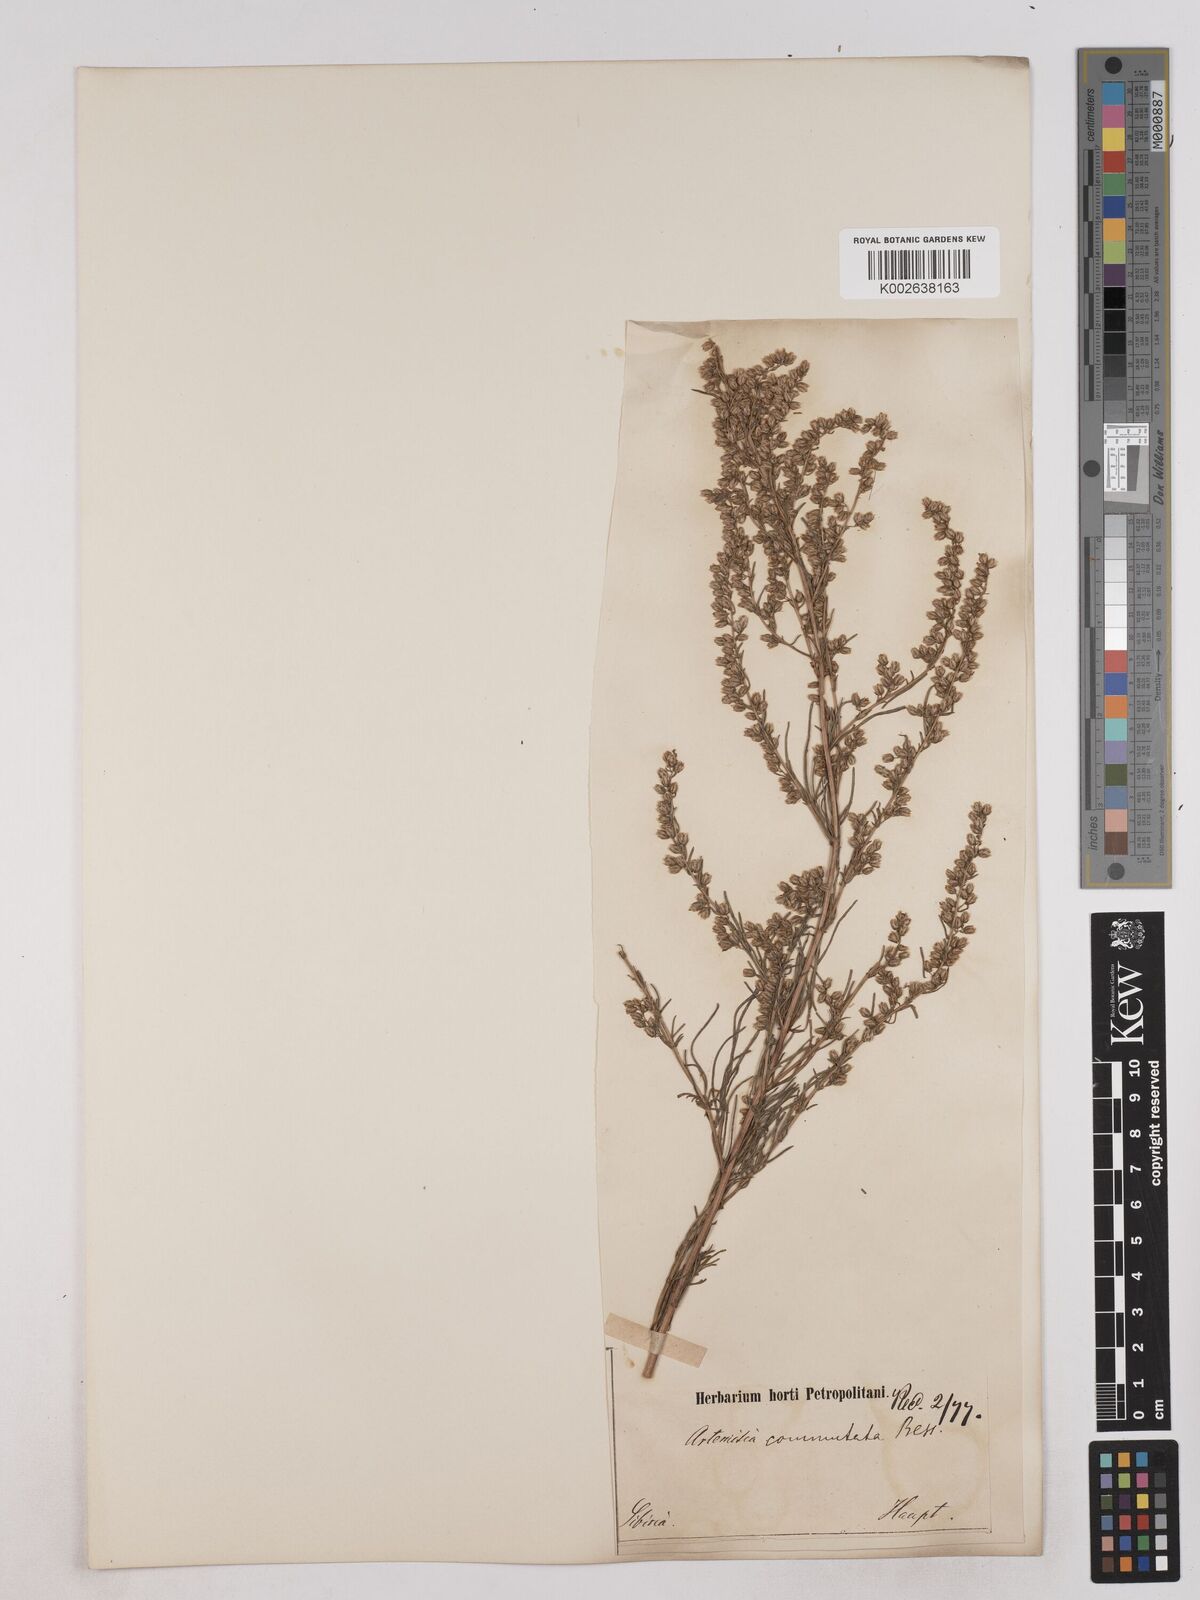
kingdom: Plantae
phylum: Tracheophyta
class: Magnoliopsida
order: Asterales
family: Asteraceae
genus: Artemisia
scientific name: Artemisia pubescens
